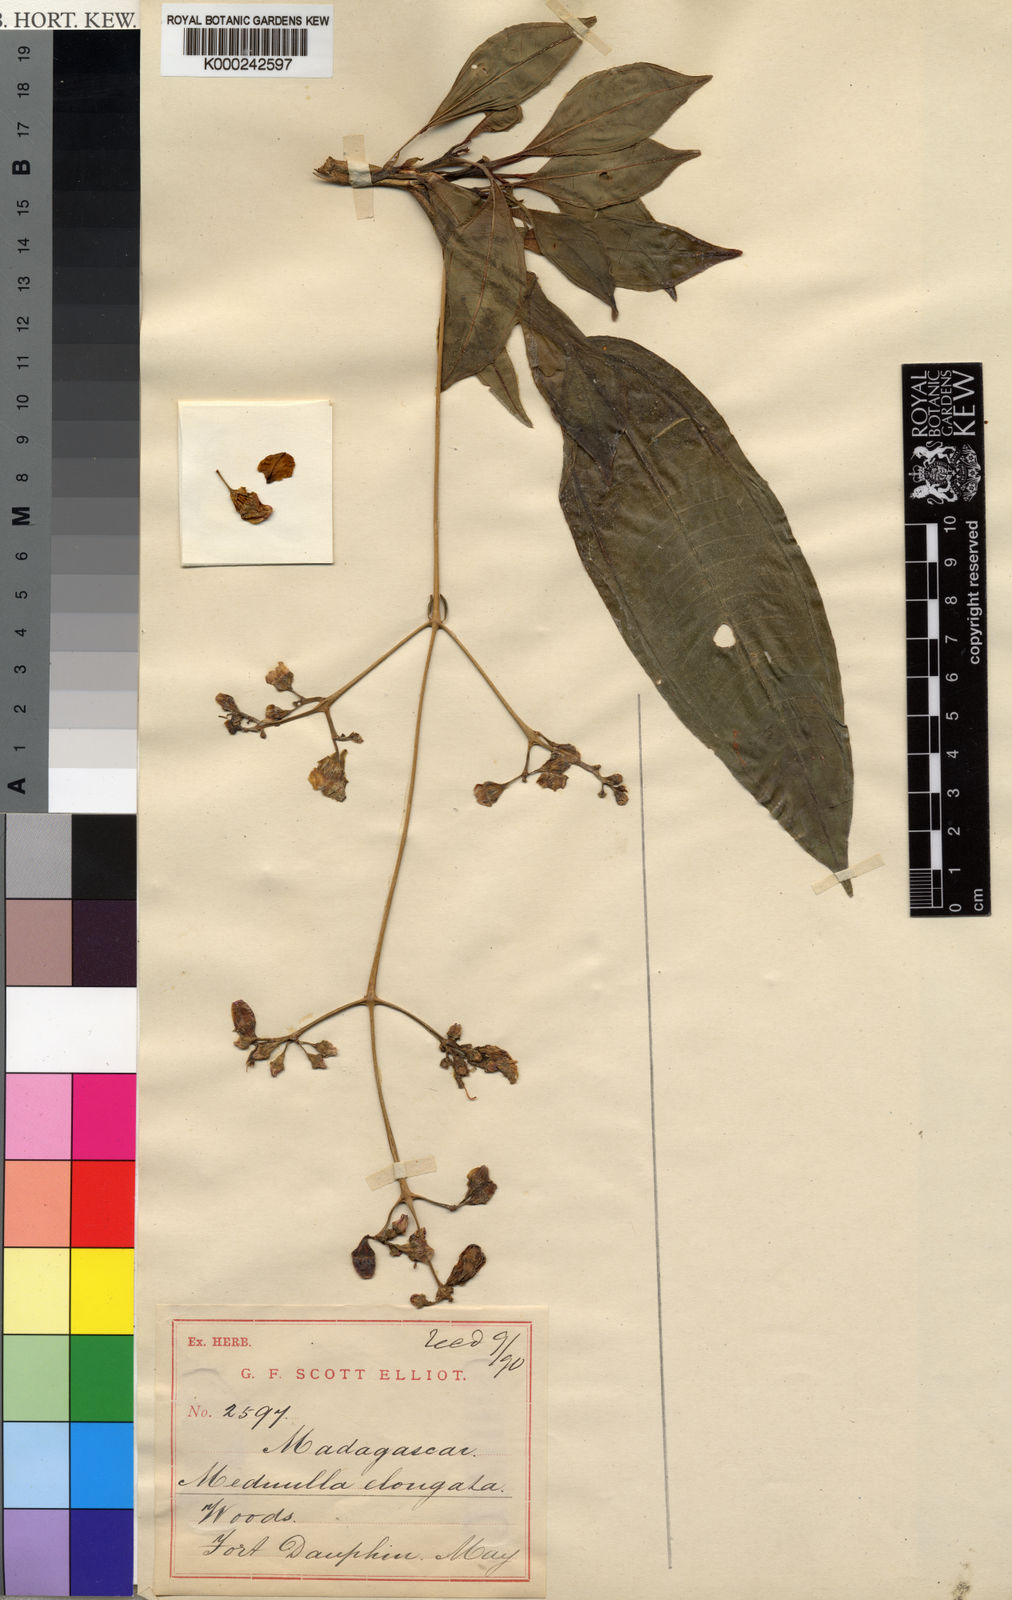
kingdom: Plantae
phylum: Tracheophyta
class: Magnoliopsida
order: Myrtales
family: Melastomataceae
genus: Gravesia
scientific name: Gravesia elongata
